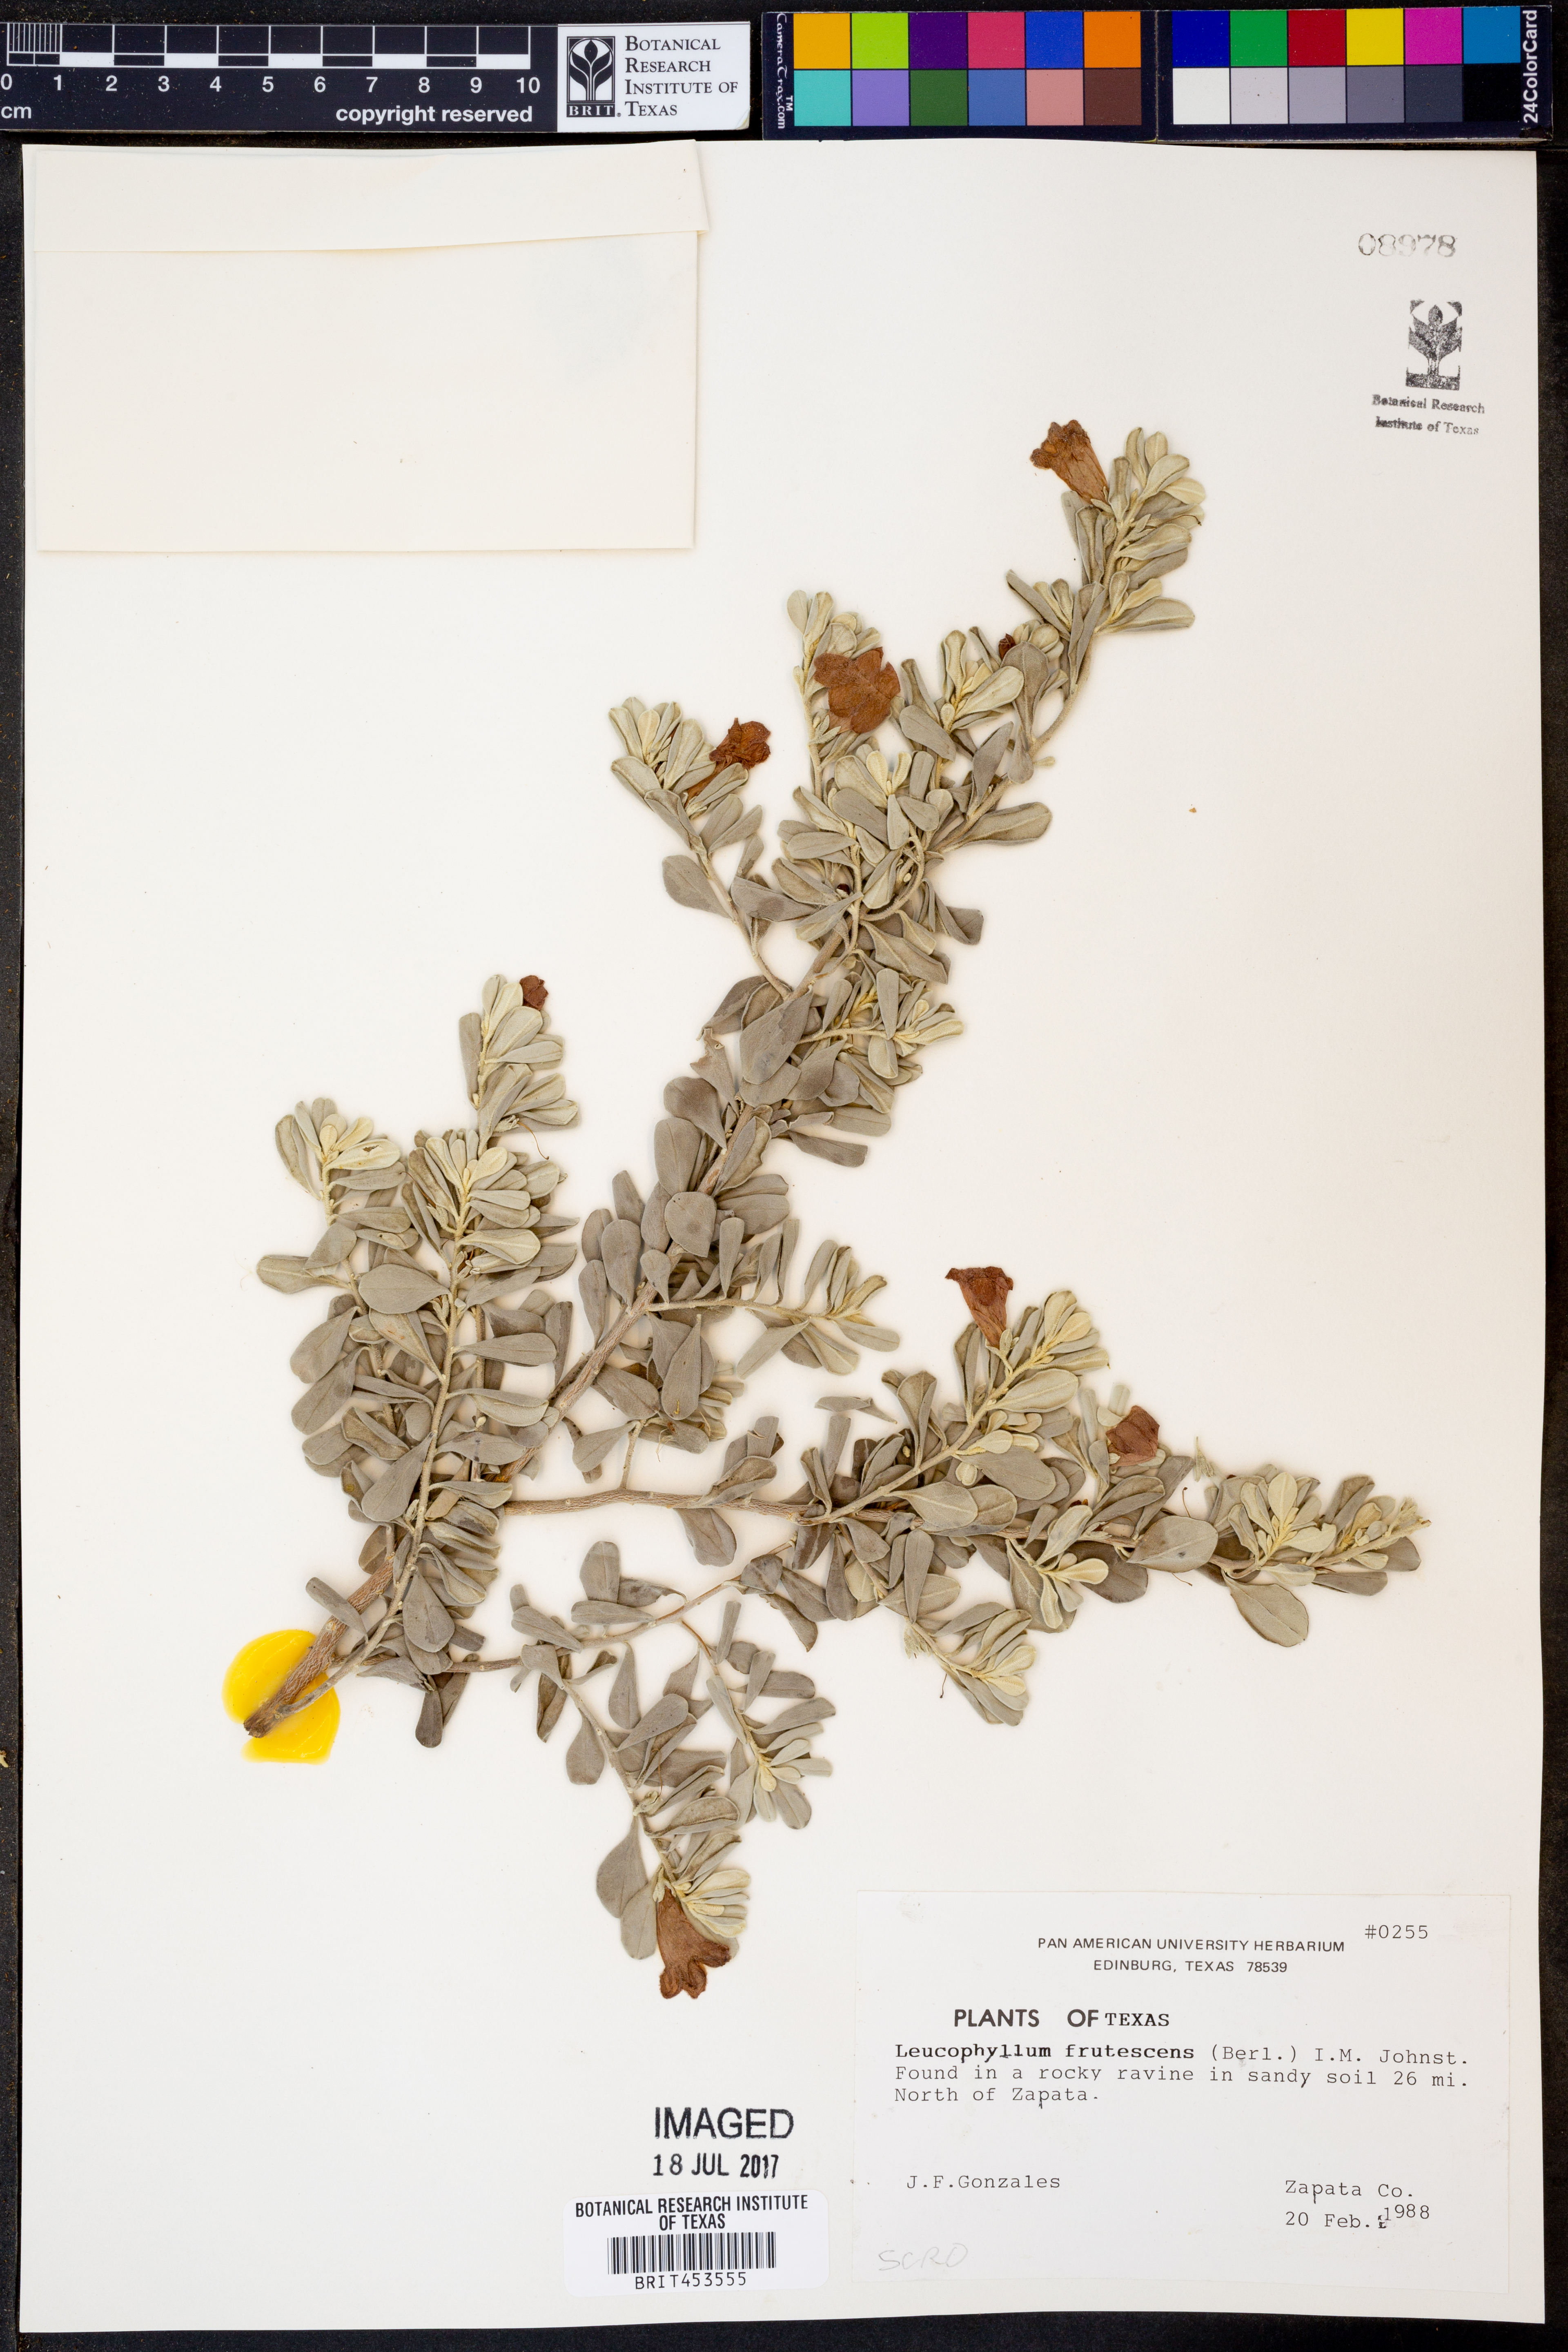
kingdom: Plantae
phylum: Tracheophyta
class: Magnoliopsida
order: Lamiales
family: Scrophulariaceae
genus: Leucophyllum
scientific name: Leucophyllum frutescens
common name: Texas silverleaf
